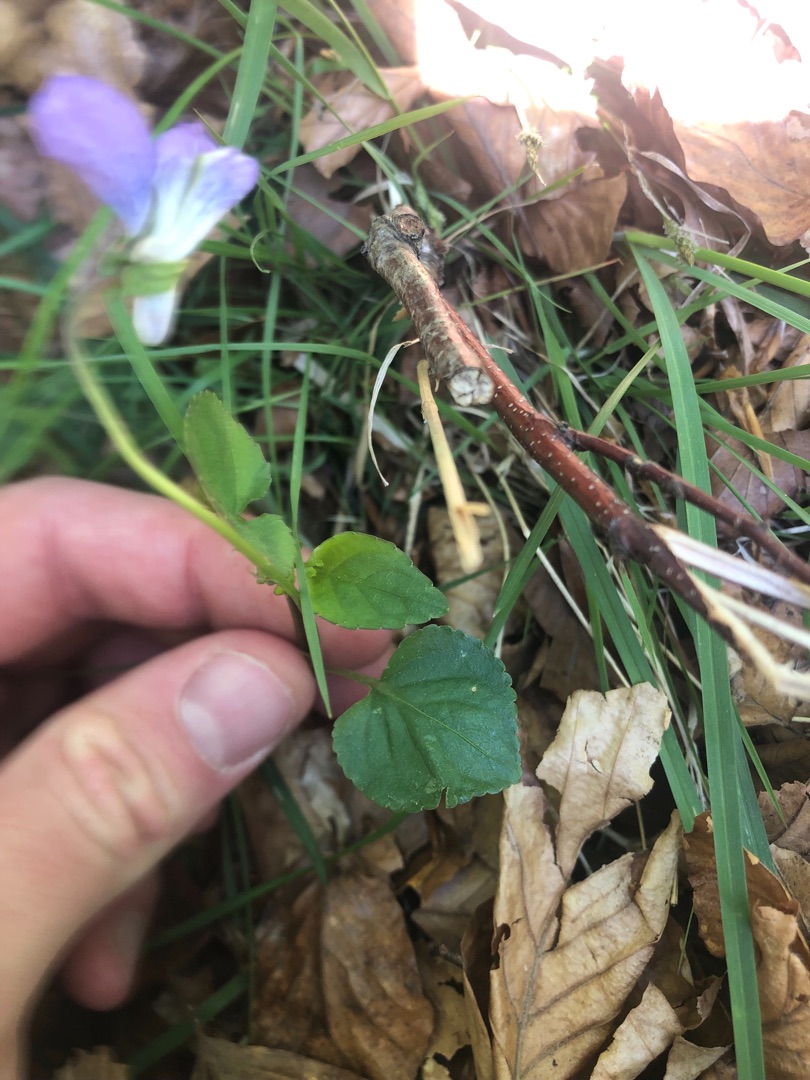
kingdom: Plantae
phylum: Tracheophyta
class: Magnoliopsida
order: Malpighiales
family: Violaceae
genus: Viola
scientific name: Viola riviniana
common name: Krat-viol
